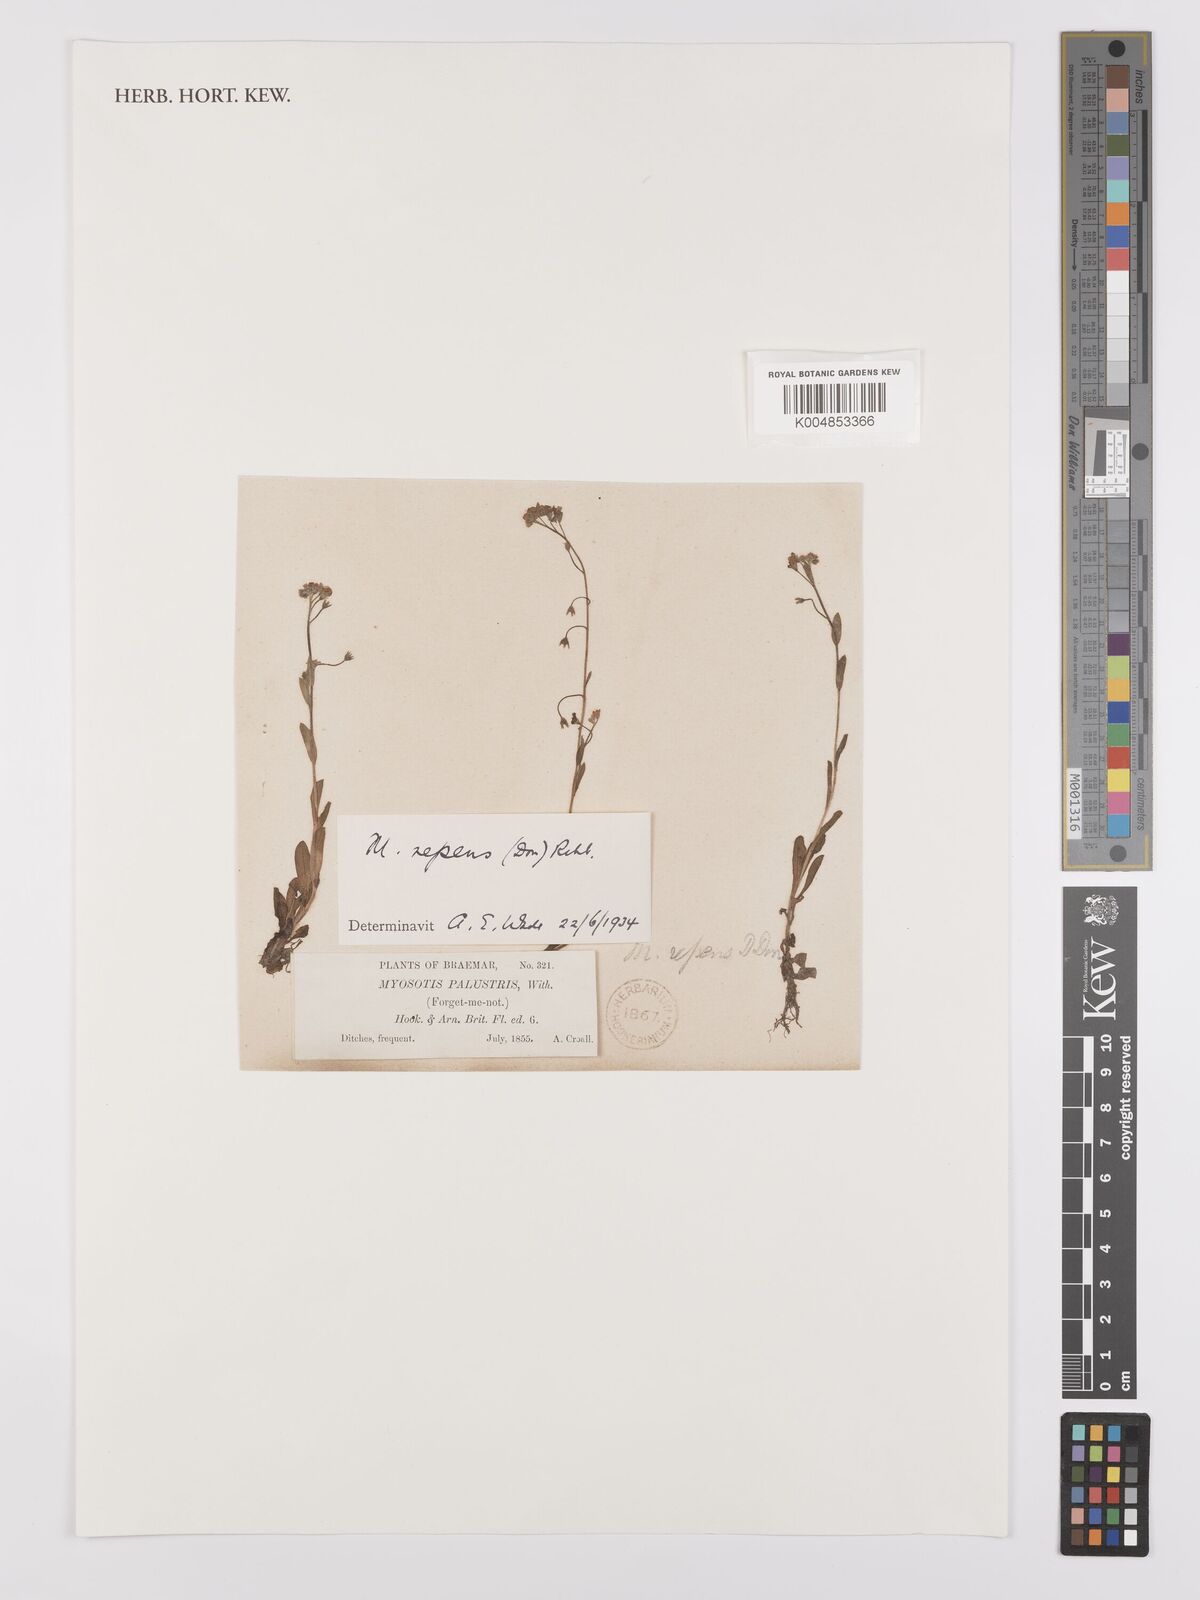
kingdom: Plantae
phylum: Tracheophyta
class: Magnoliopsida
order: Boraginales
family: Boraginaceae
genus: Myosotis
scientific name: Myosotis scorpioides
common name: Water forget-me-not
